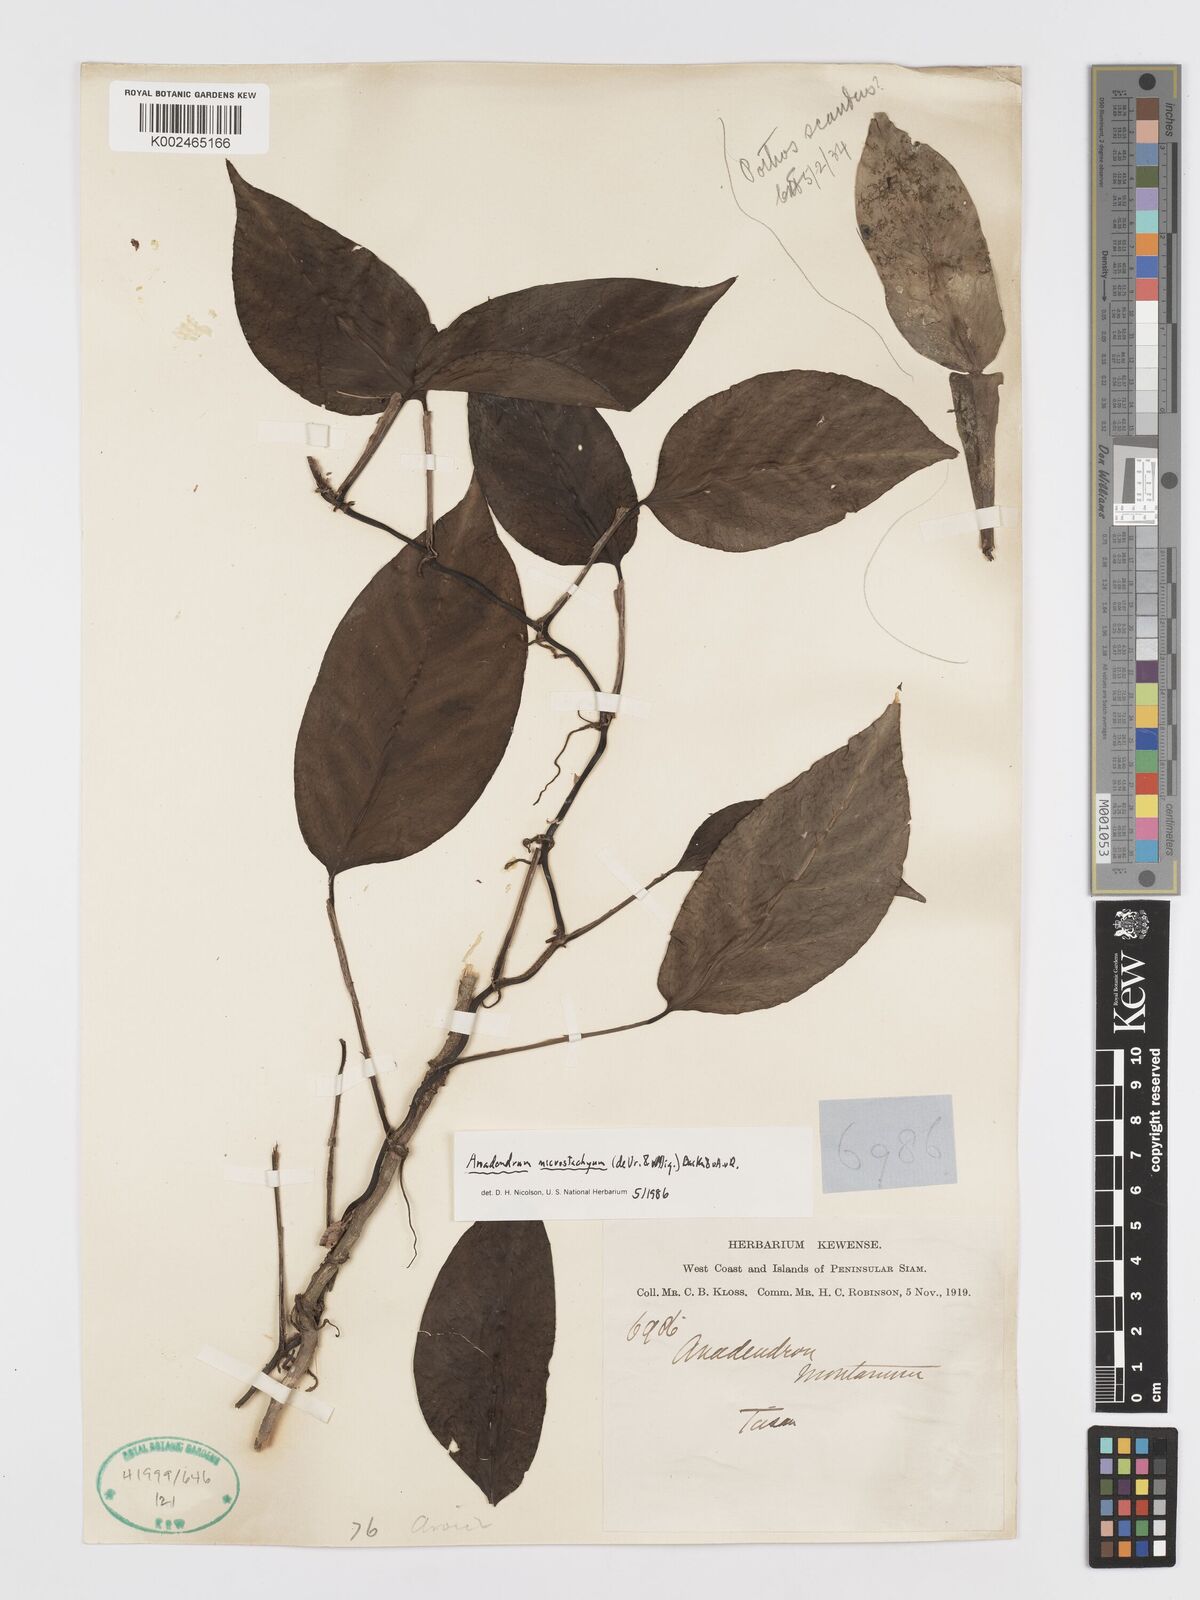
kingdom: Plantae
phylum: Tracheophyta
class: Liliopsida
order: Alismatales
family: Araceae
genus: Anadendrum
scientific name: Anadendrum microstachyum
